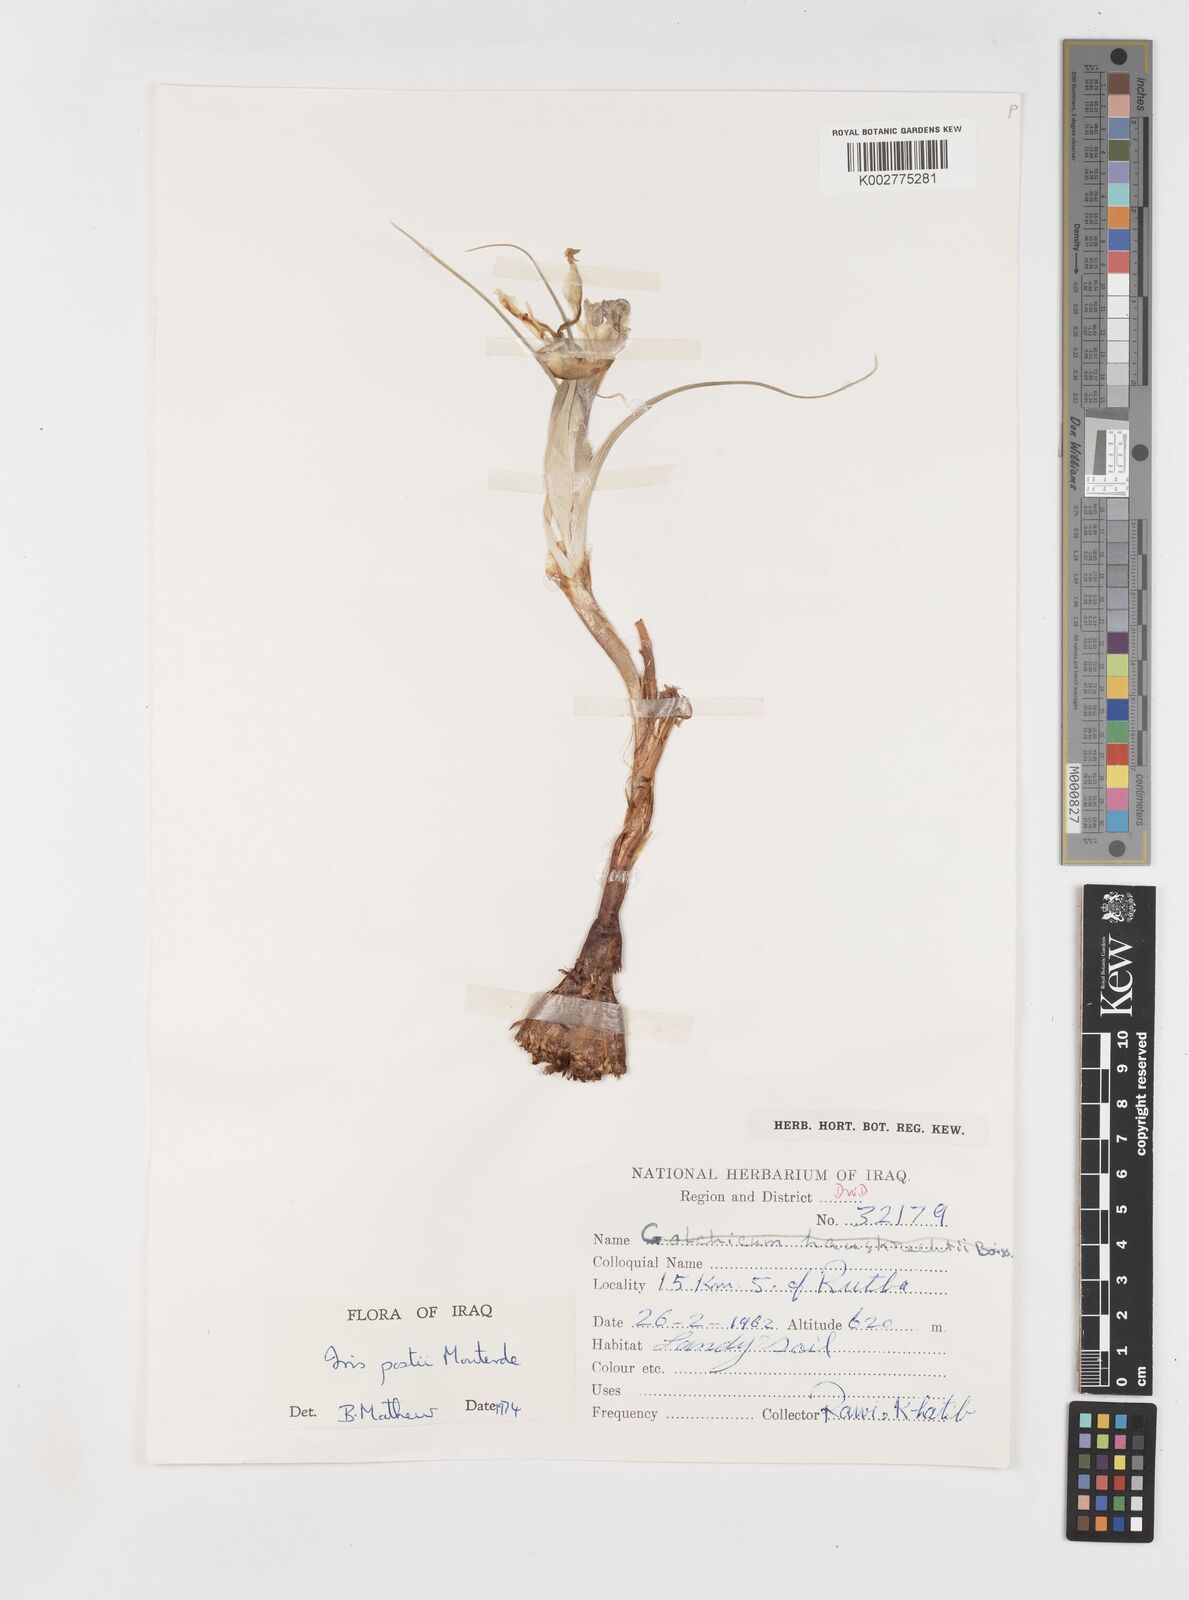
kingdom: Plantae
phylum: Tracheophyta
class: Liliopsida
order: Asparagales
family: Iridaceae
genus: Iris
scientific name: Iris postii
